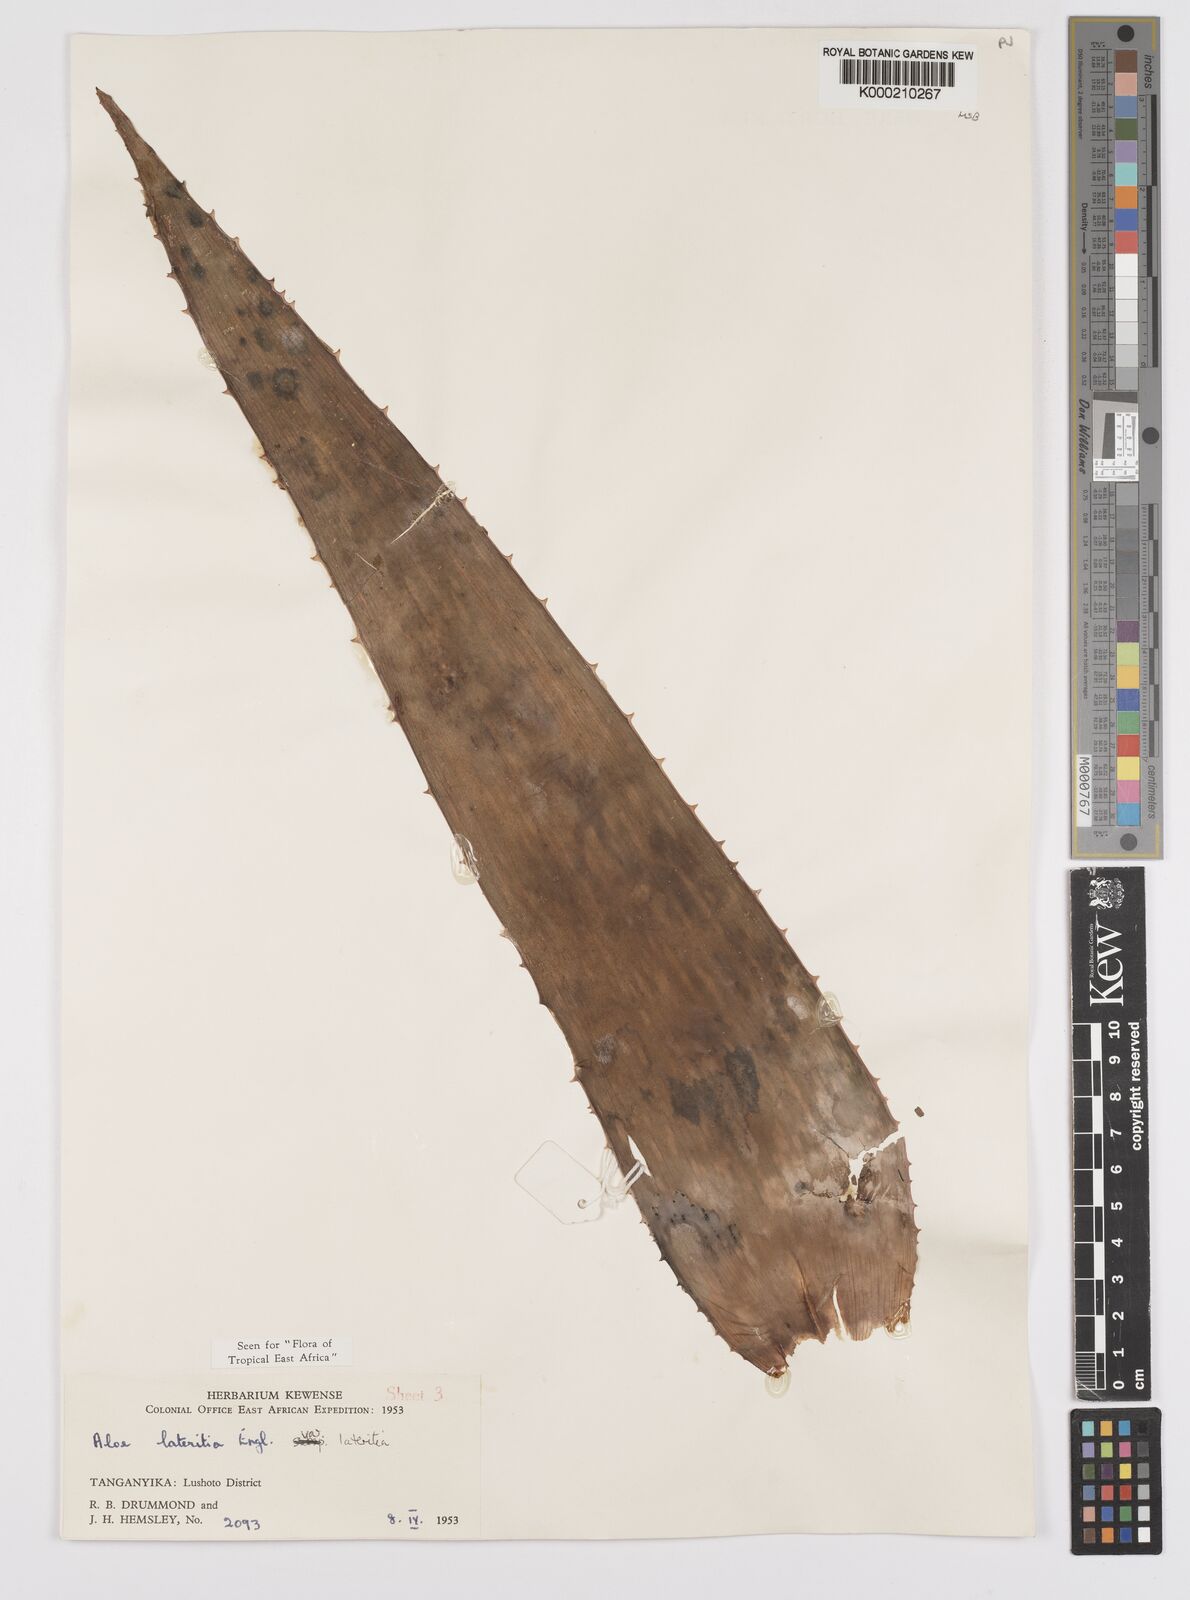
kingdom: Plantae
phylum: Tracheophyta
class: Liliopsida
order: Asparagales
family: Asphodelaceae
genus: Aloe
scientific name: Aloe lateritia
